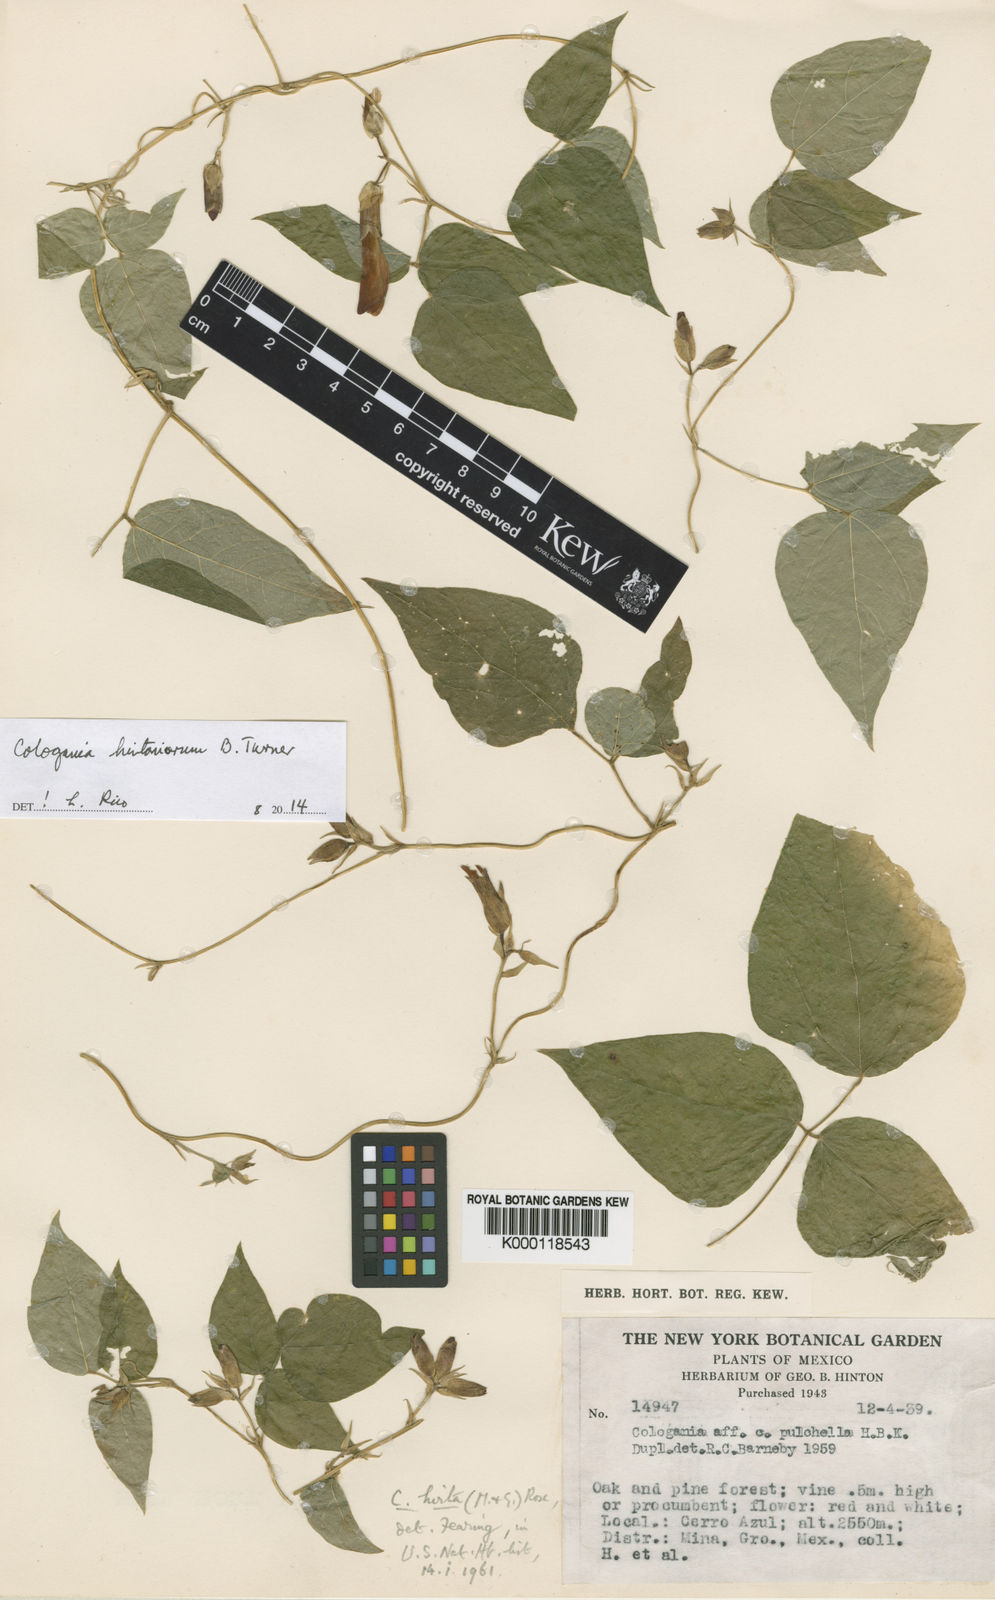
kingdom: Plantae
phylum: Tracheophyta
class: Magnoliopsida
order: Fabales
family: Fabaceae
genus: Cologania
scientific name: Cologania hintoniorum
